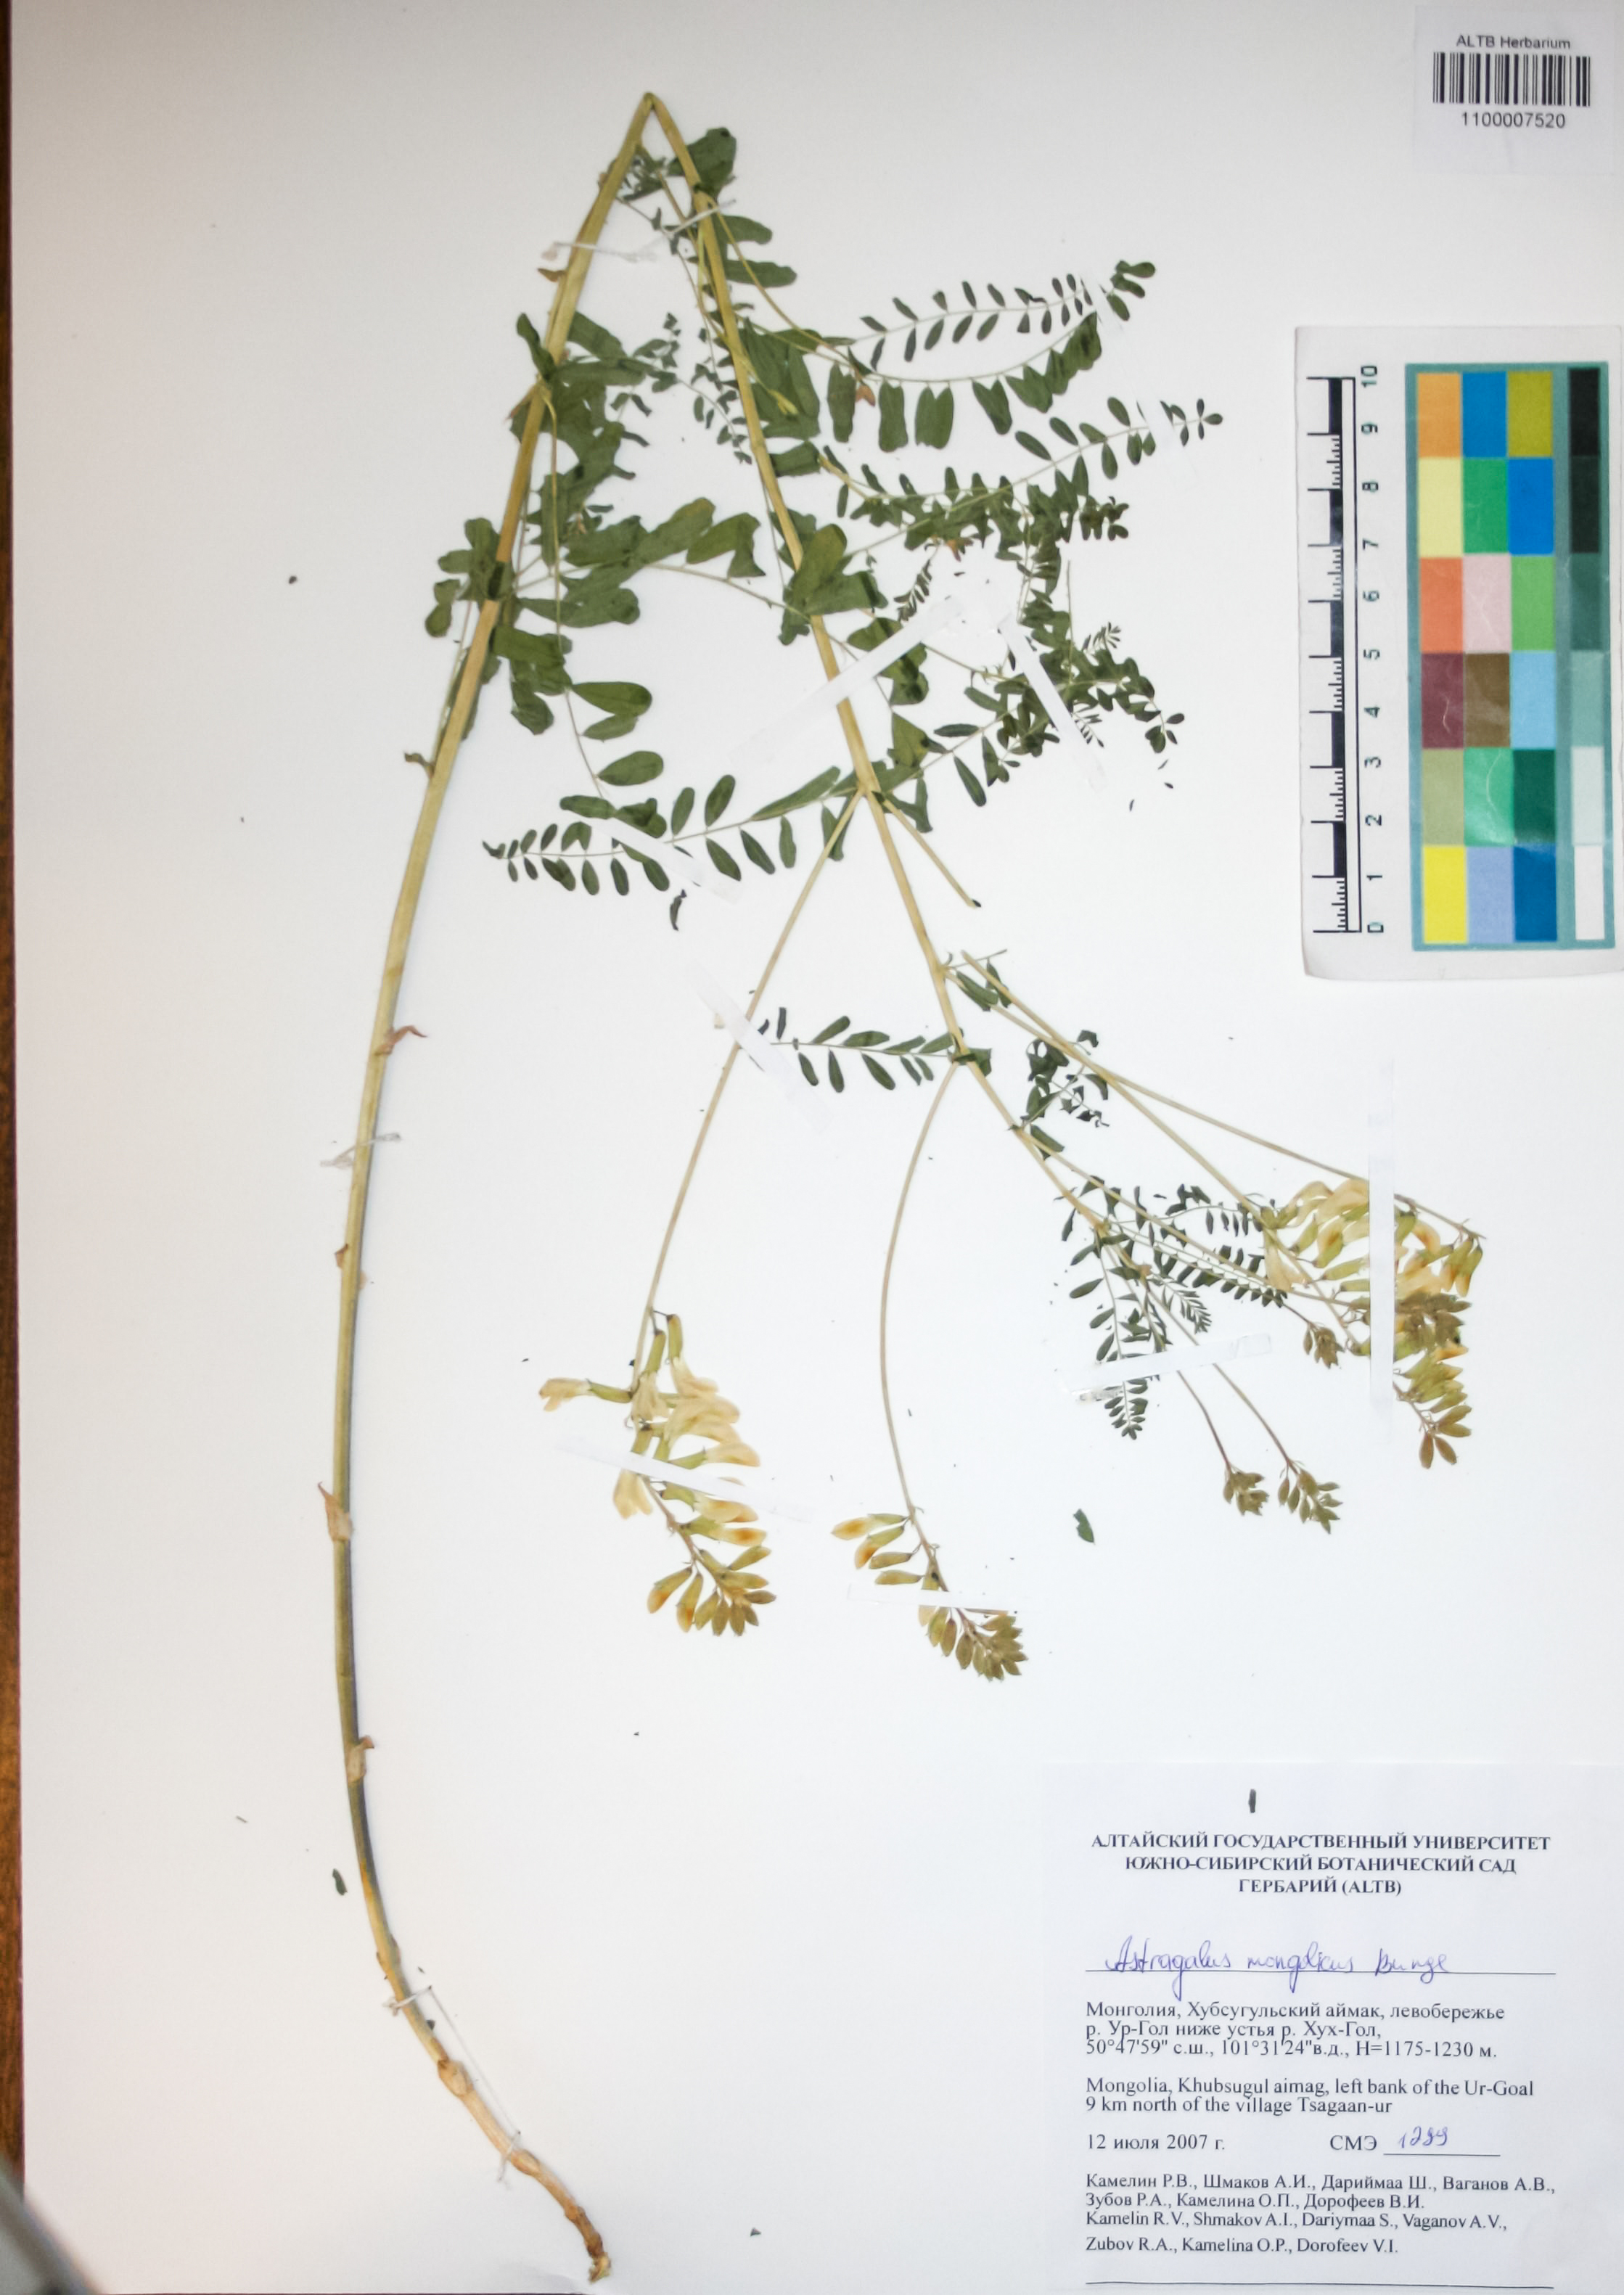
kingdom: Plantae
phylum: Tracheophyta
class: Magnoliopsida
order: Fabales
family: Fabaceae
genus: Astragalus
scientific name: Astragalus mongolicus
